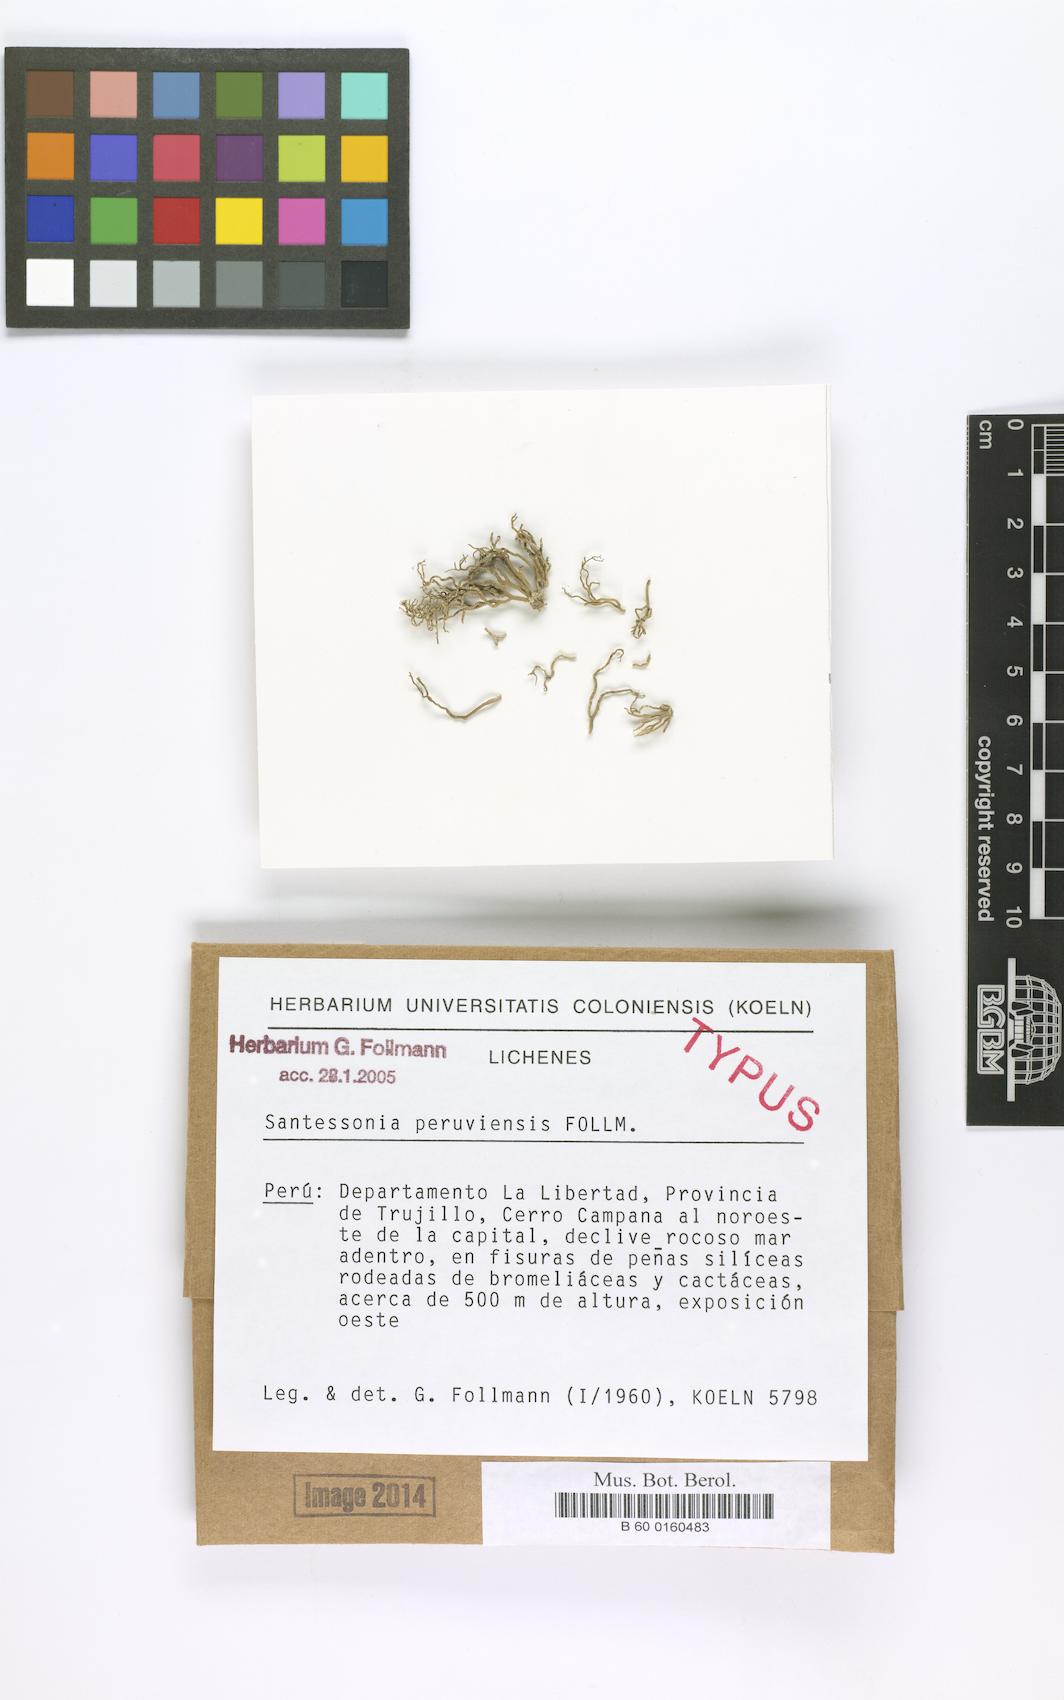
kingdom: Fungi
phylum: Ascomycota
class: Lecanoromycetes
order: Caliciales
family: Caliciaceae
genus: Santessonia
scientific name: Santessonia peruviensis
